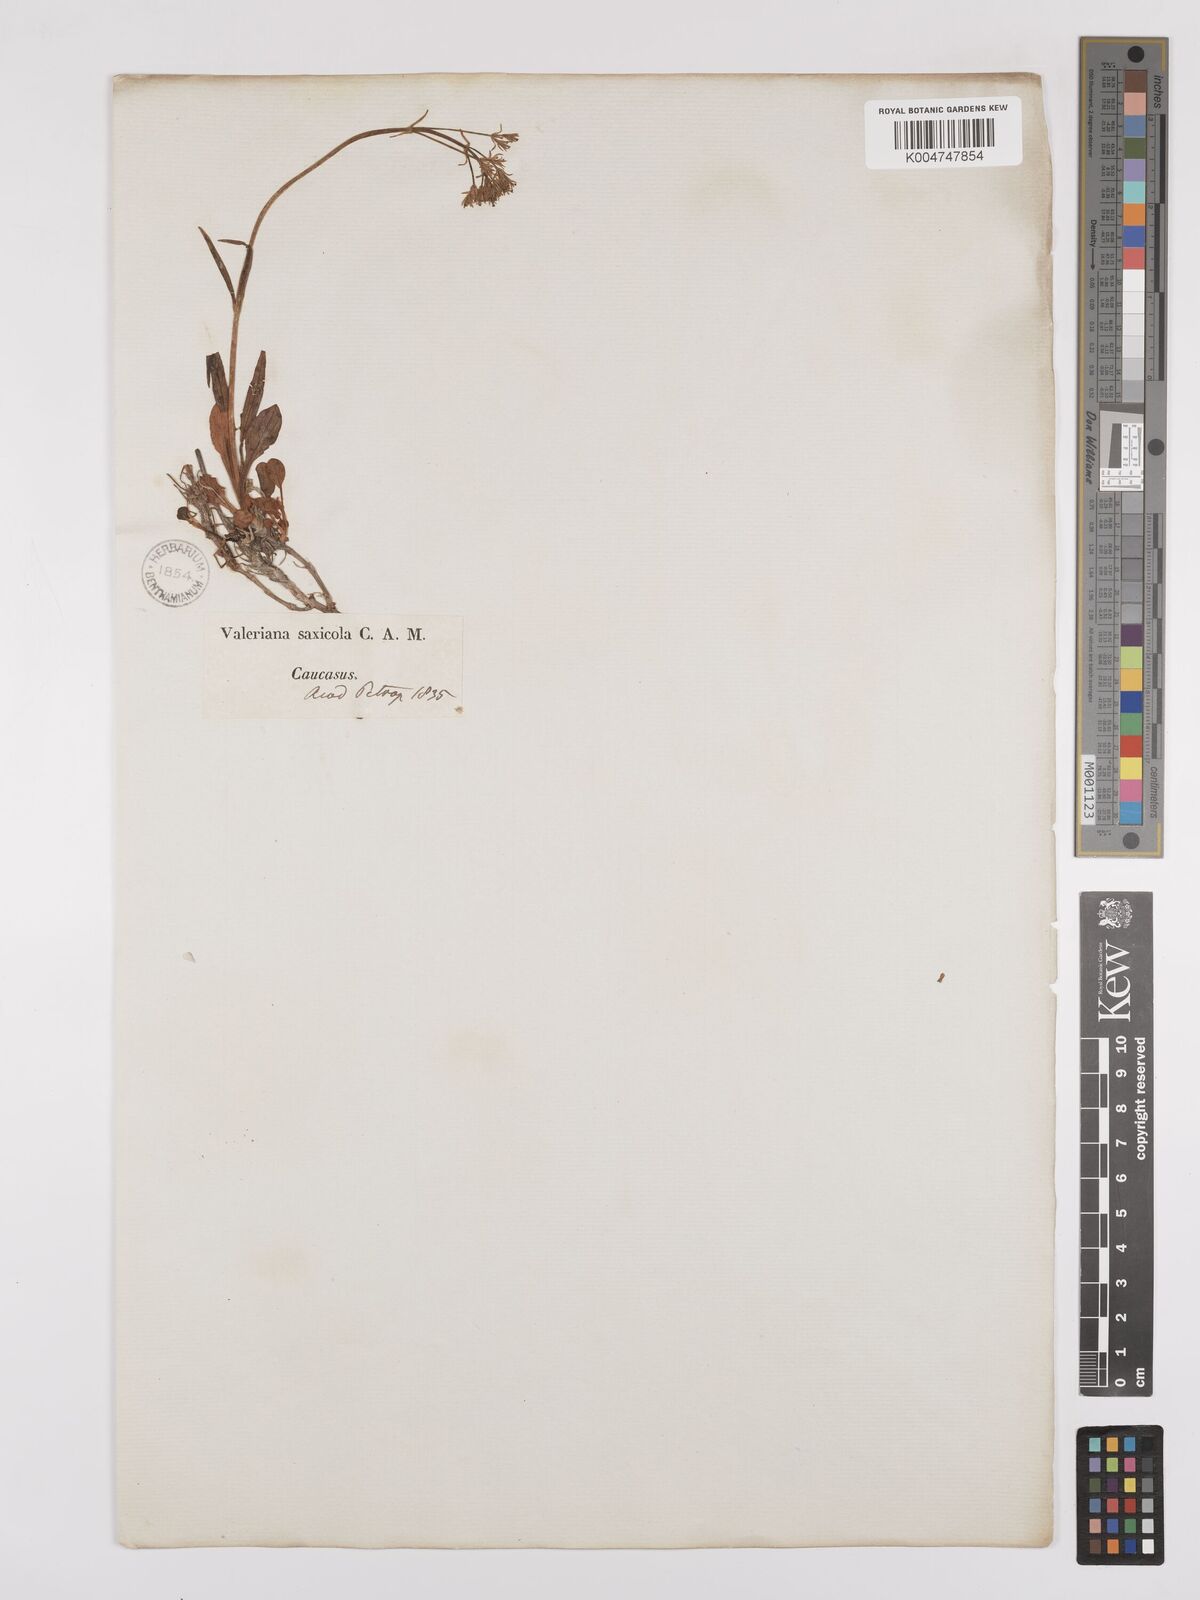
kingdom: Plantae
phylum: Tracheophyta
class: Magnoliopsida
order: Dipsacales
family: Caprifoliaceae
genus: Valeriana
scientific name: Valeriana saxicola
